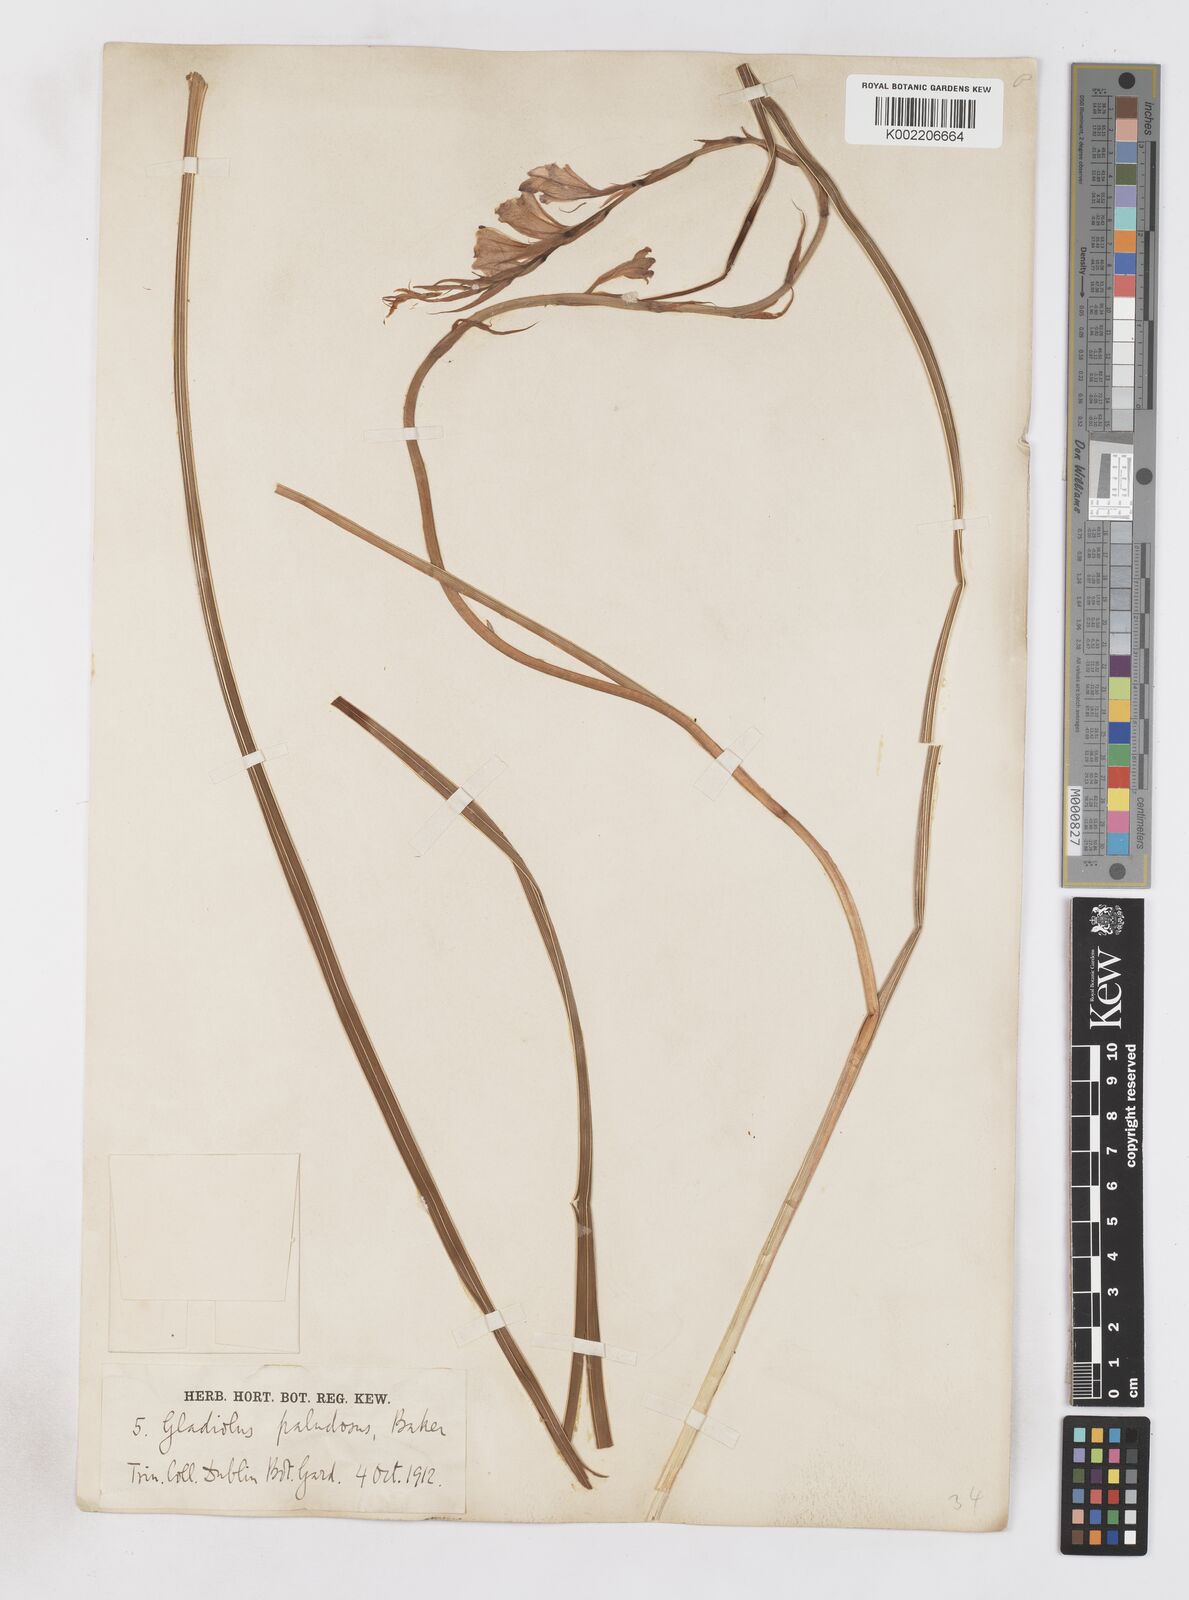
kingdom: Plantae
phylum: Tracheophyta
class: Liliopsida
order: Asparagales
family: Iridaceae
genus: Gladiolus
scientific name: Gladiolus crassifolius
